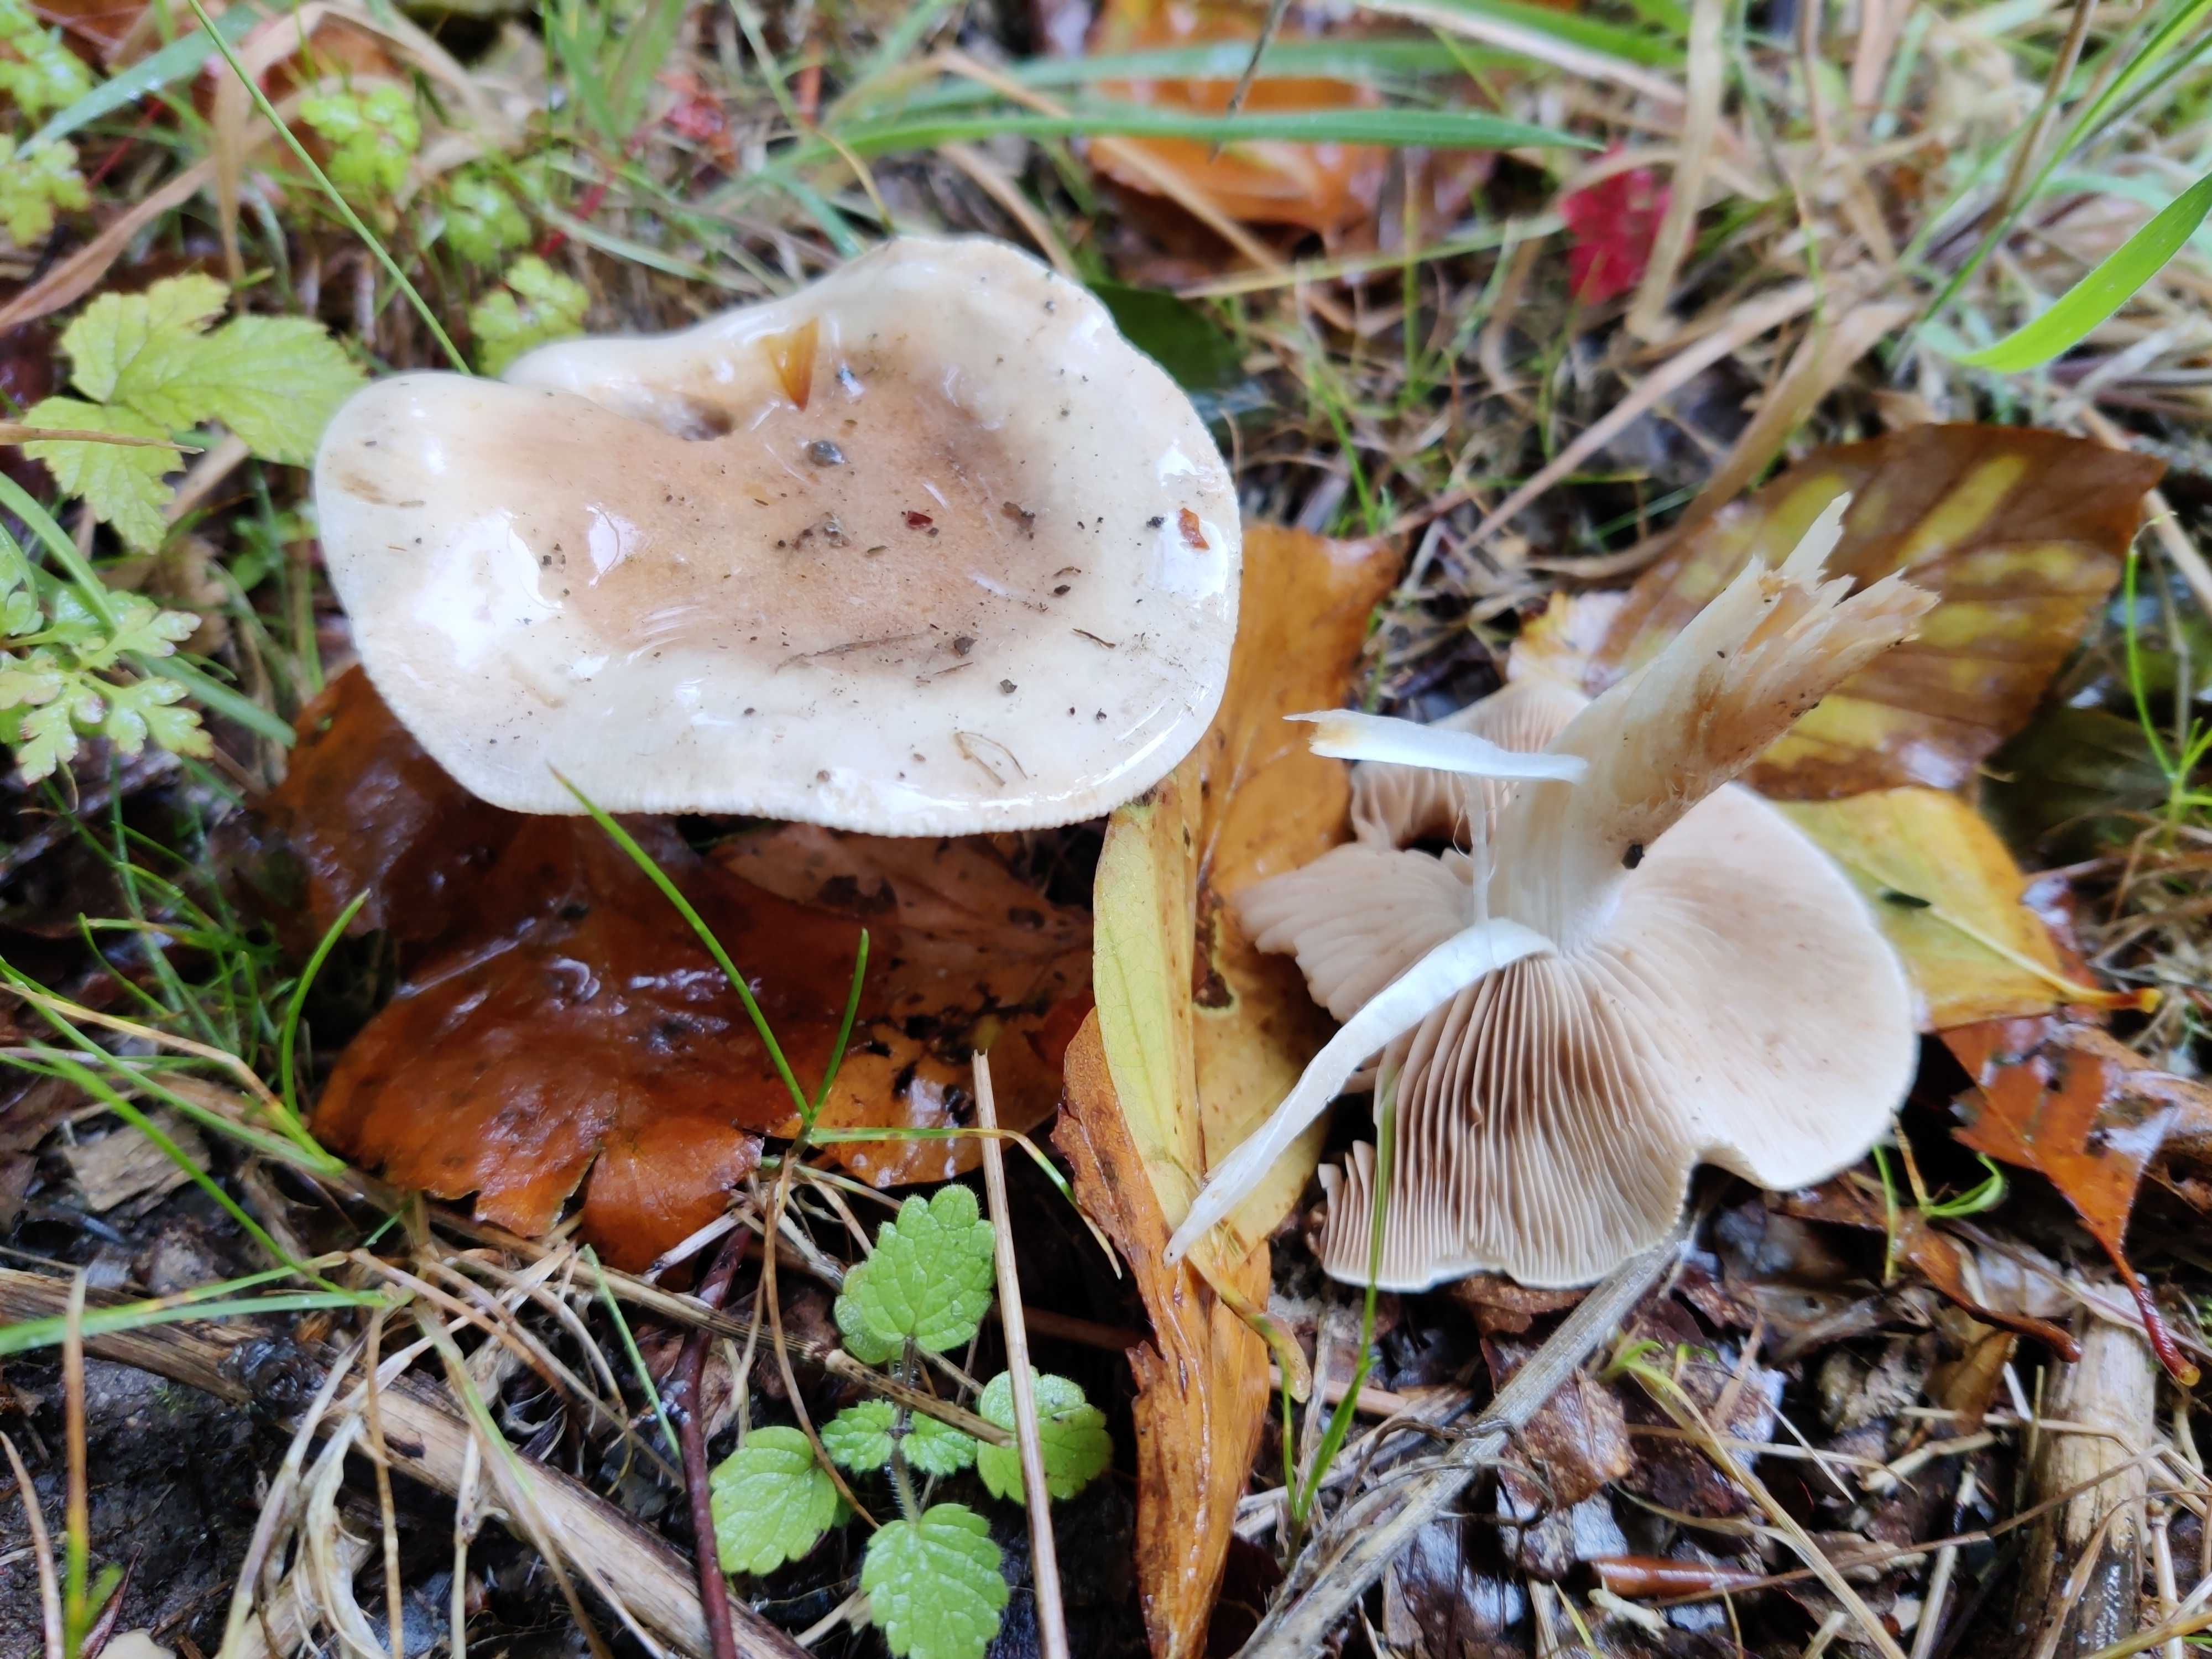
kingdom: Fungi
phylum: Basidiomycota
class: Agaricomycetes
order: Agaricales
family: Hymenogastraceae
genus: Hebeloma
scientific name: Hebeloma
